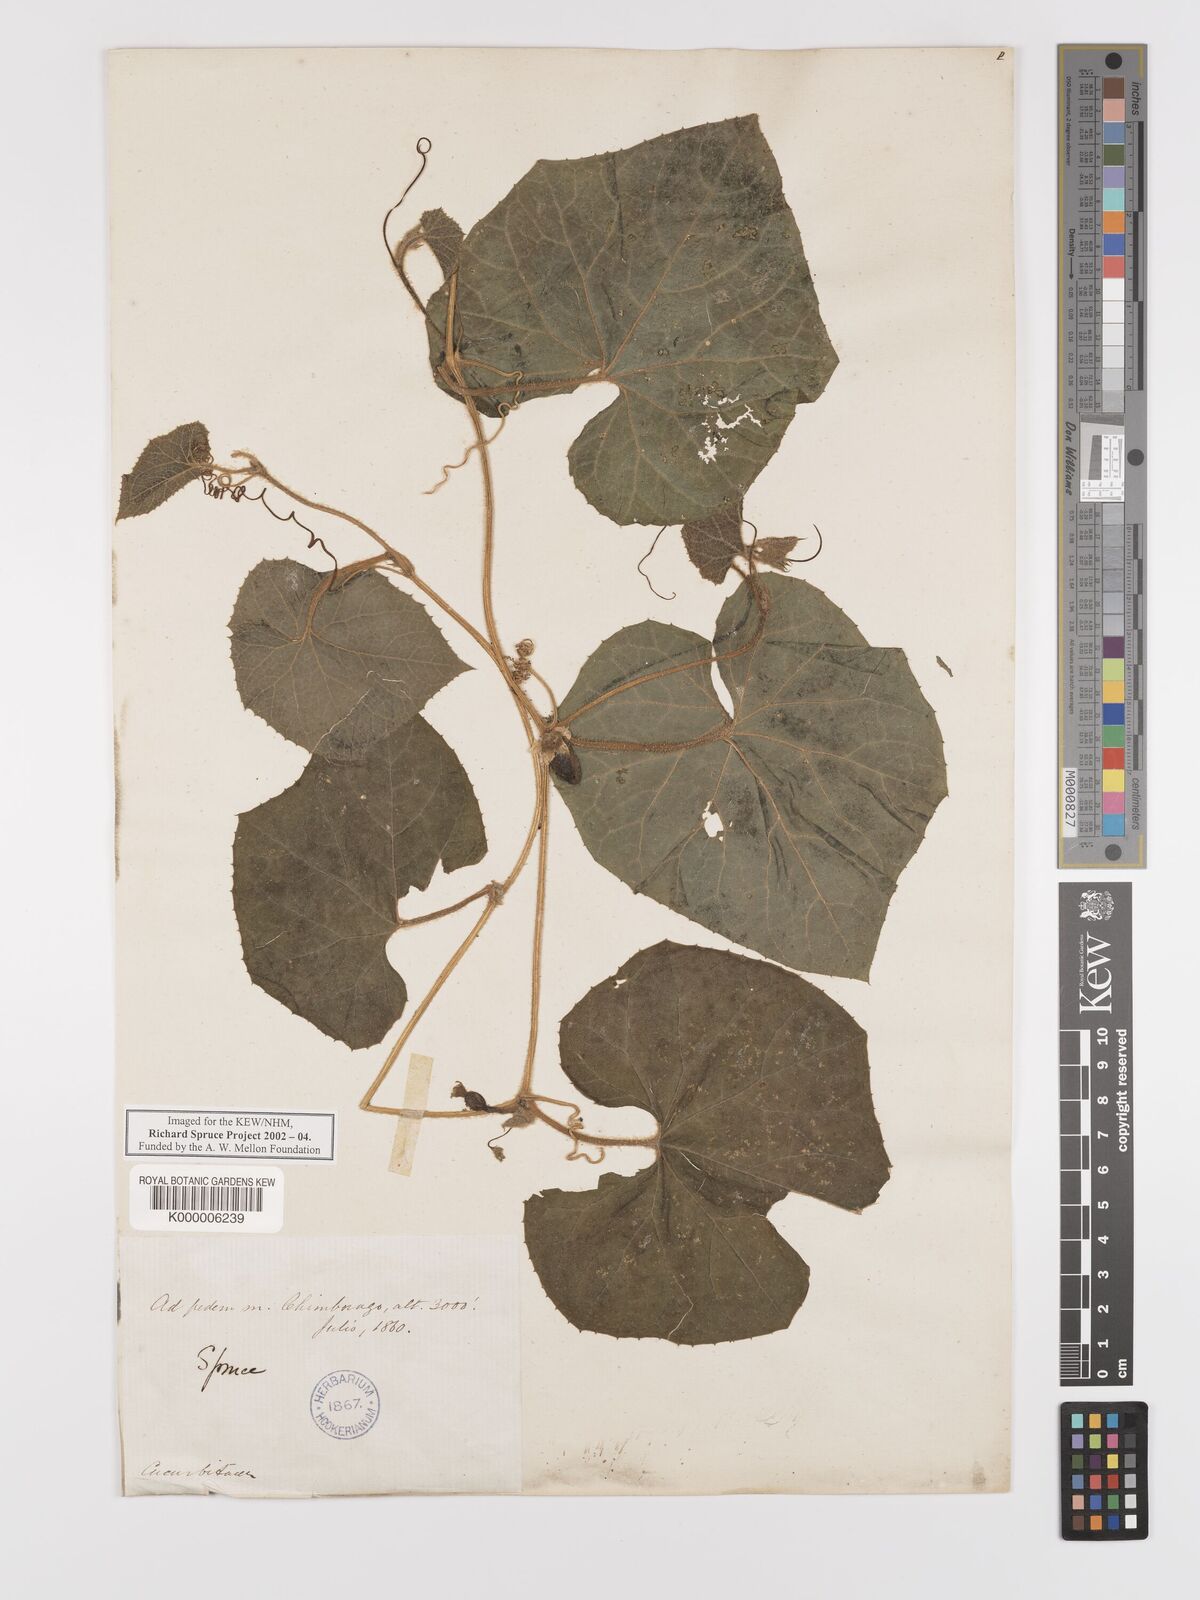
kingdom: Plantae
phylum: Tracheophyta
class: Magnoliopsida
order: Cucurbitales
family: Cucurbitaceae
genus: Melothria
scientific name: Melothria sphaerocarpa
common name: Egusi-itoo
